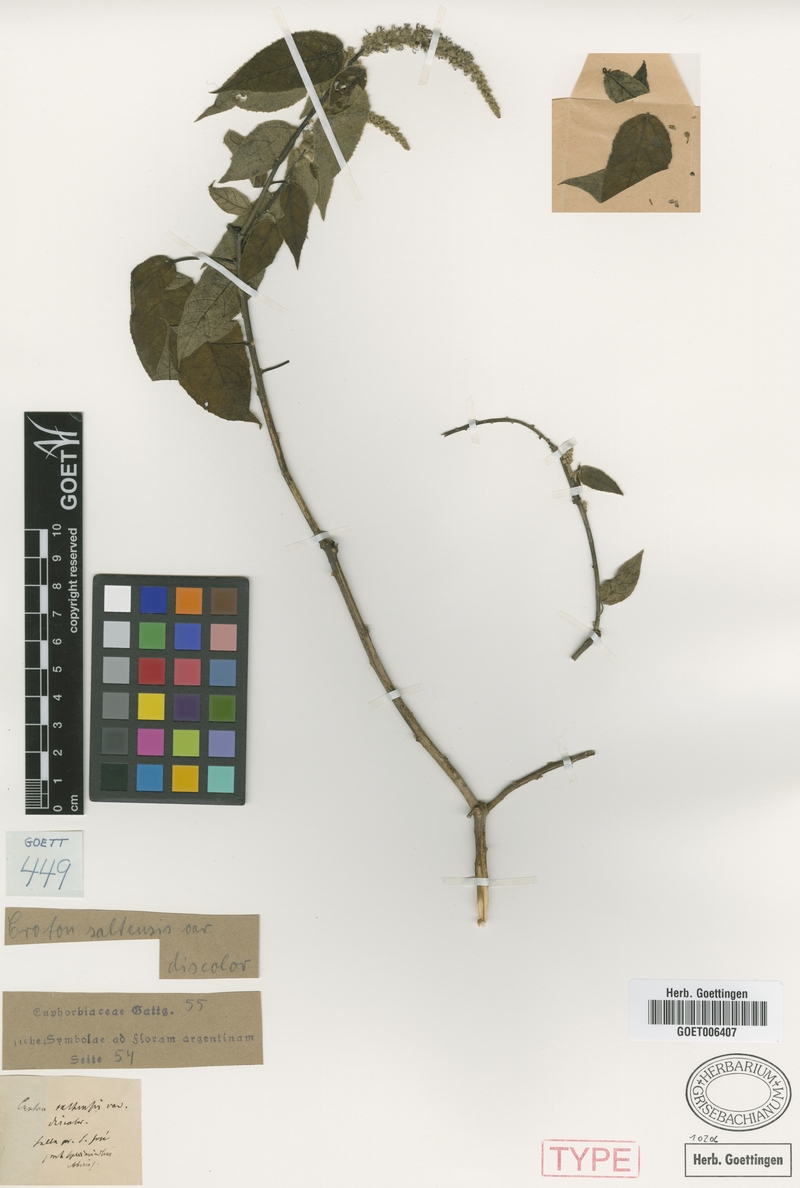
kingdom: Plantae
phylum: Tracheophyta
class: Magnoliopsida
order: Malpighiales
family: Euphorbiaceae
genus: Croton
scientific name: Croton saltensis
